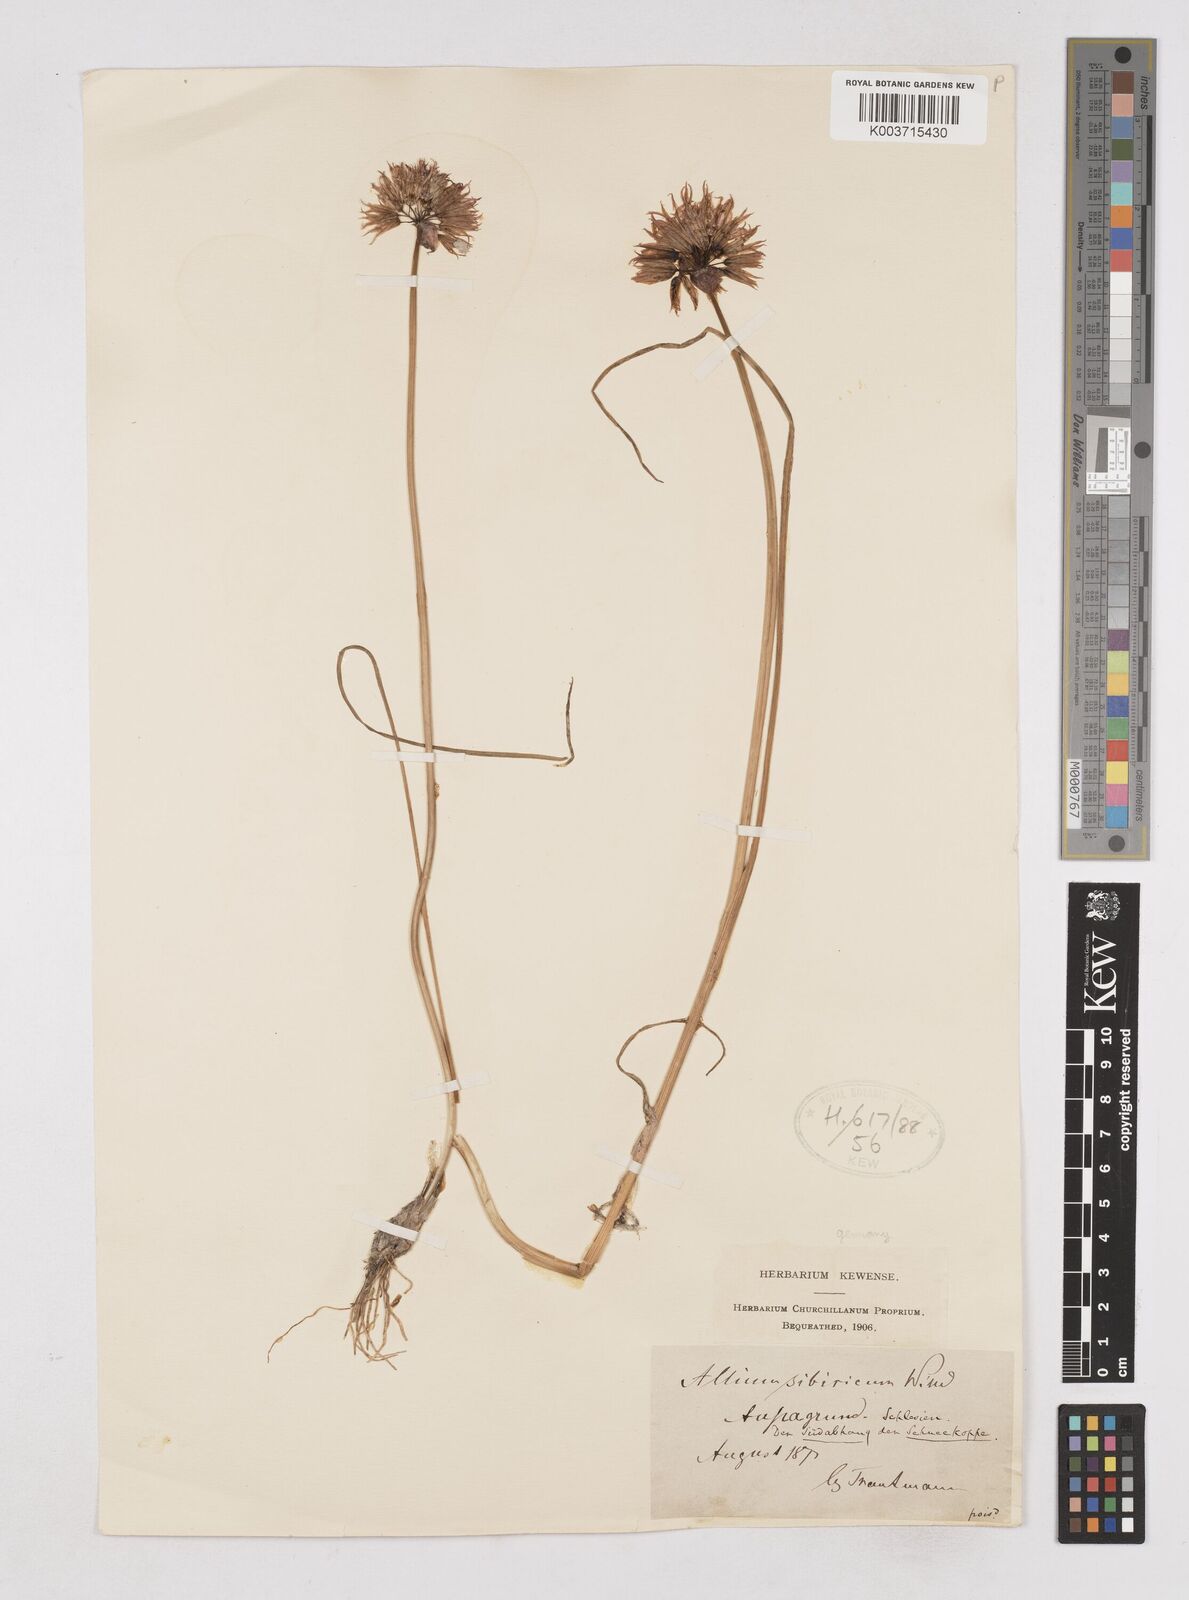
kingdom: Plantae
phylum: Tracheophyta
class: Liliopsida
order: Asparagales
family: Amaryllidaceae
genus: Allium
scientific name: Allium schoenoprasum
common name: Chives
